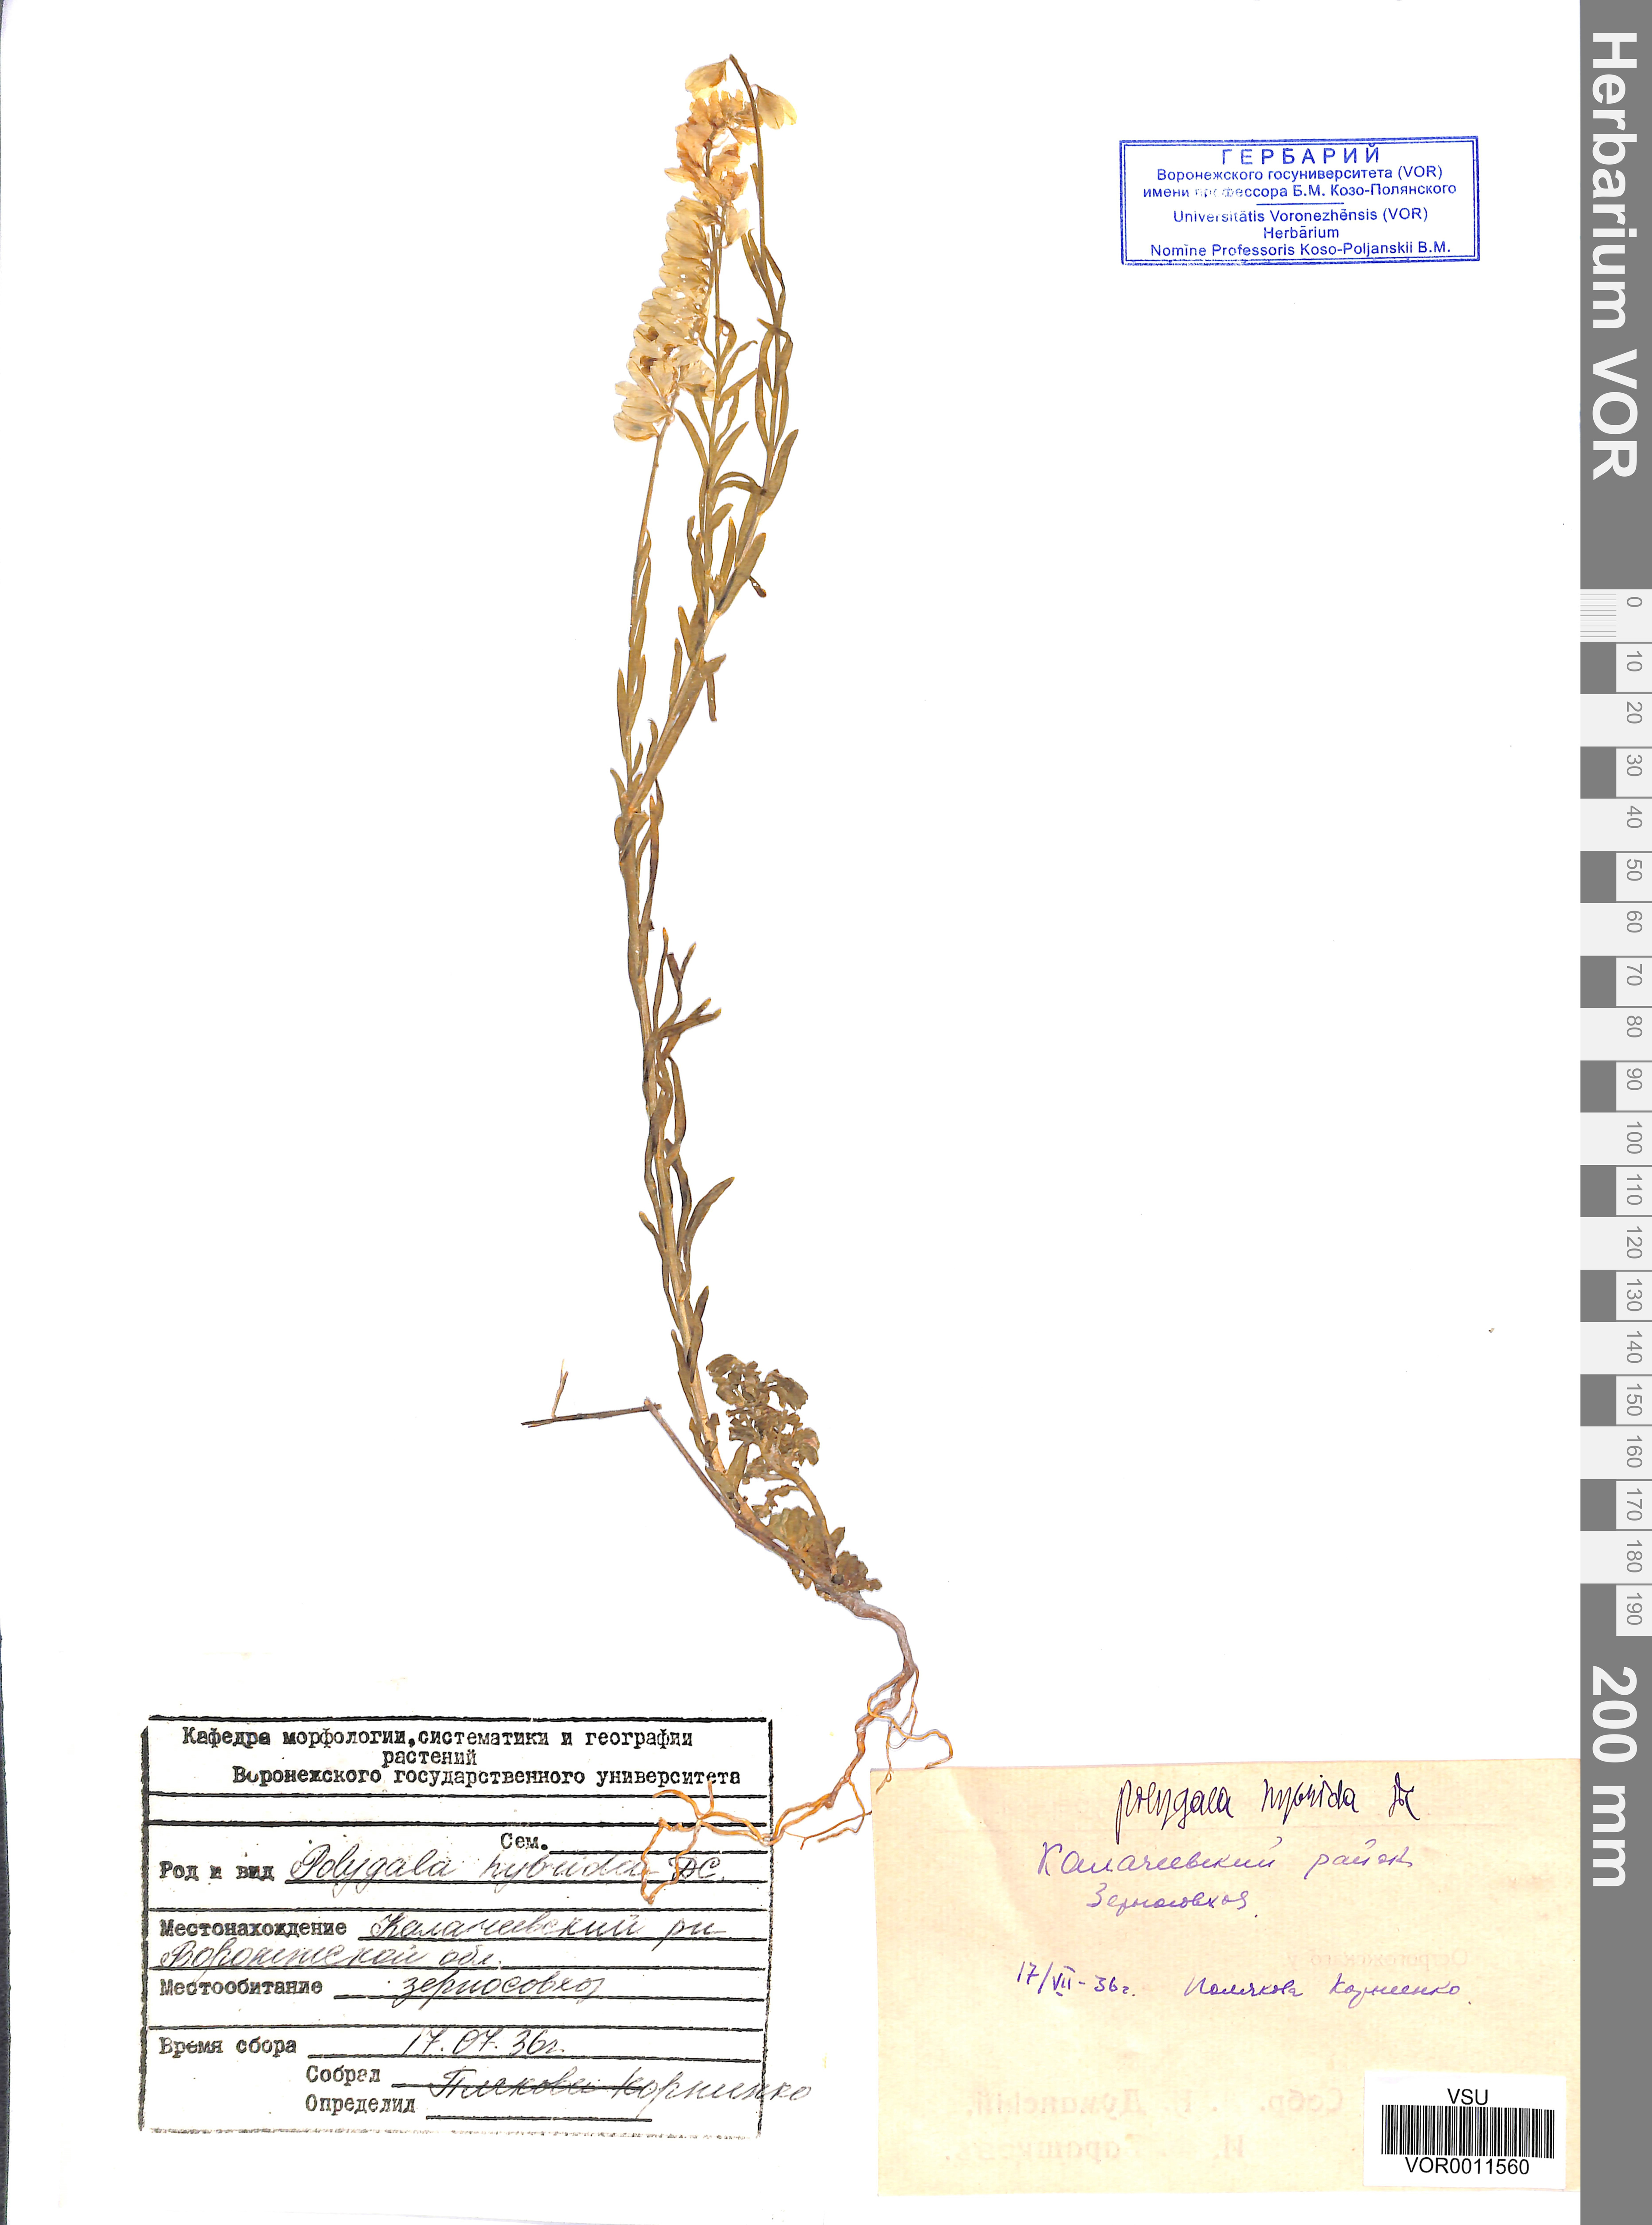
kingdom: Plantae
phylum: Tracheophyta
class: Magnoliopsida
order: Fabales
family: Polygalaceae
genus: Polygala
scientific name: Polygala comosa
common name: Tufted milkwort
